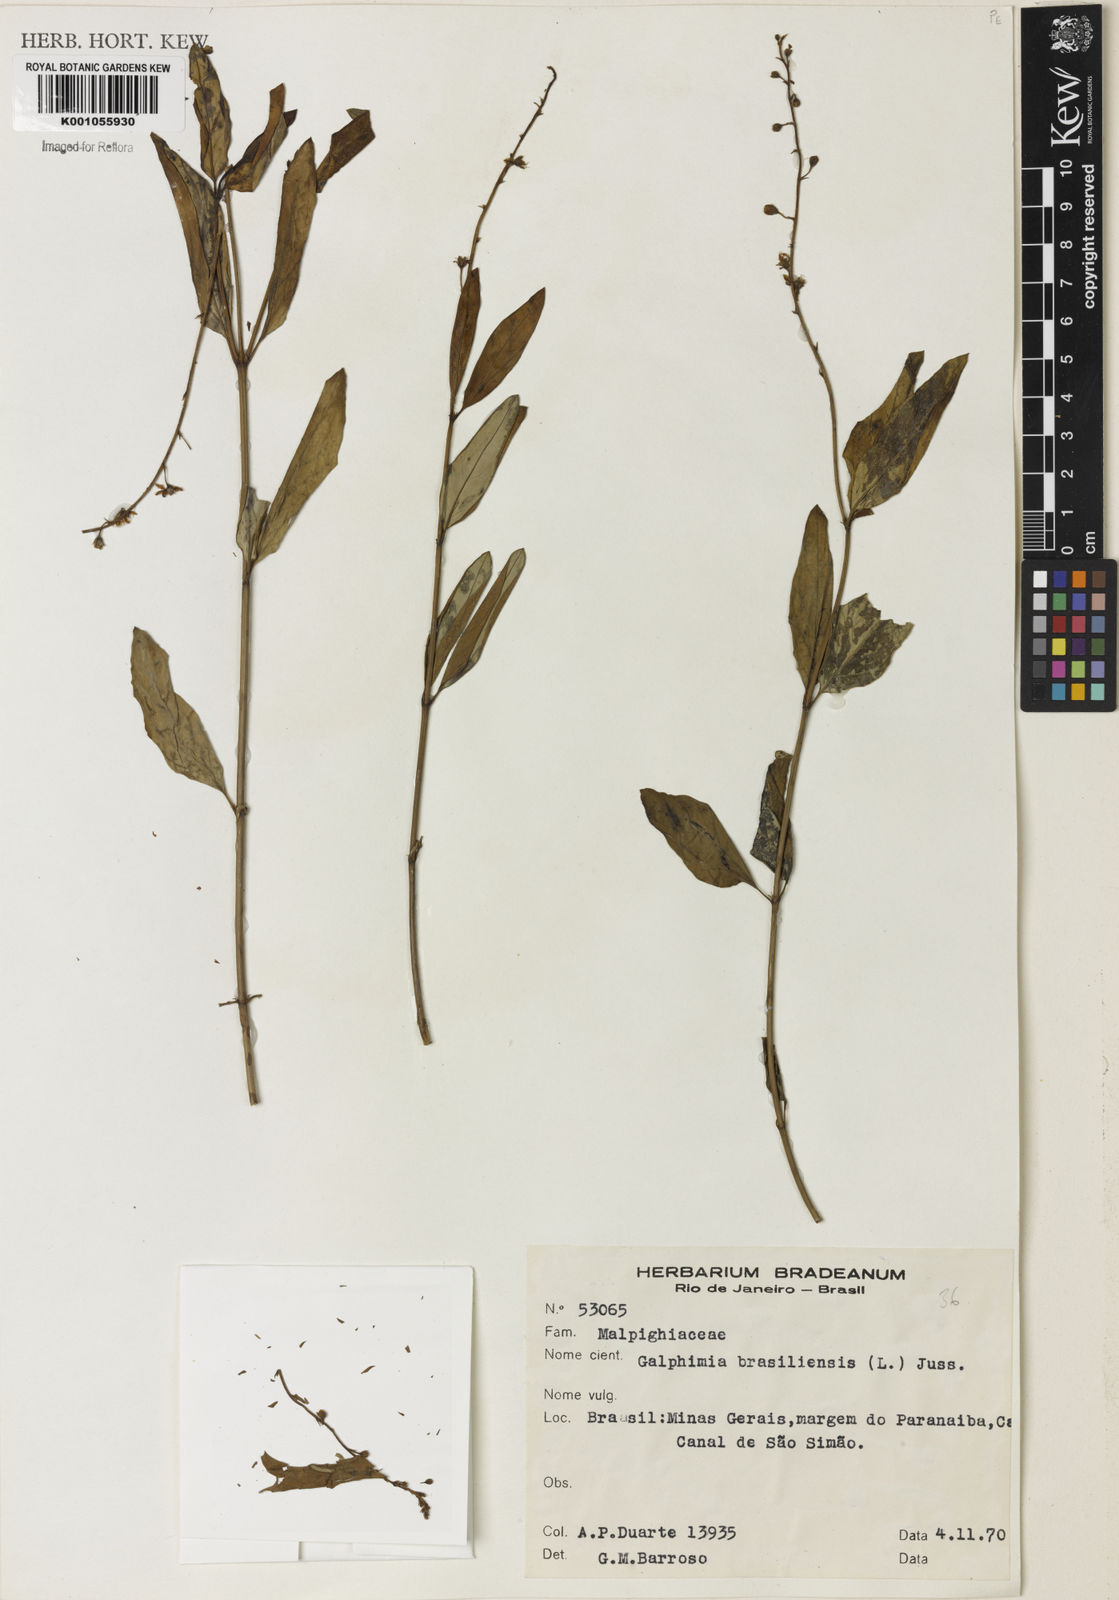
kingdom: Plantae
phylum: Tracheophyta
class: Magnoliopsida
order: Malpighiales
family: Malpighiaceae
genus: Galphimia
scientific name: Galphimia brasiliensis
